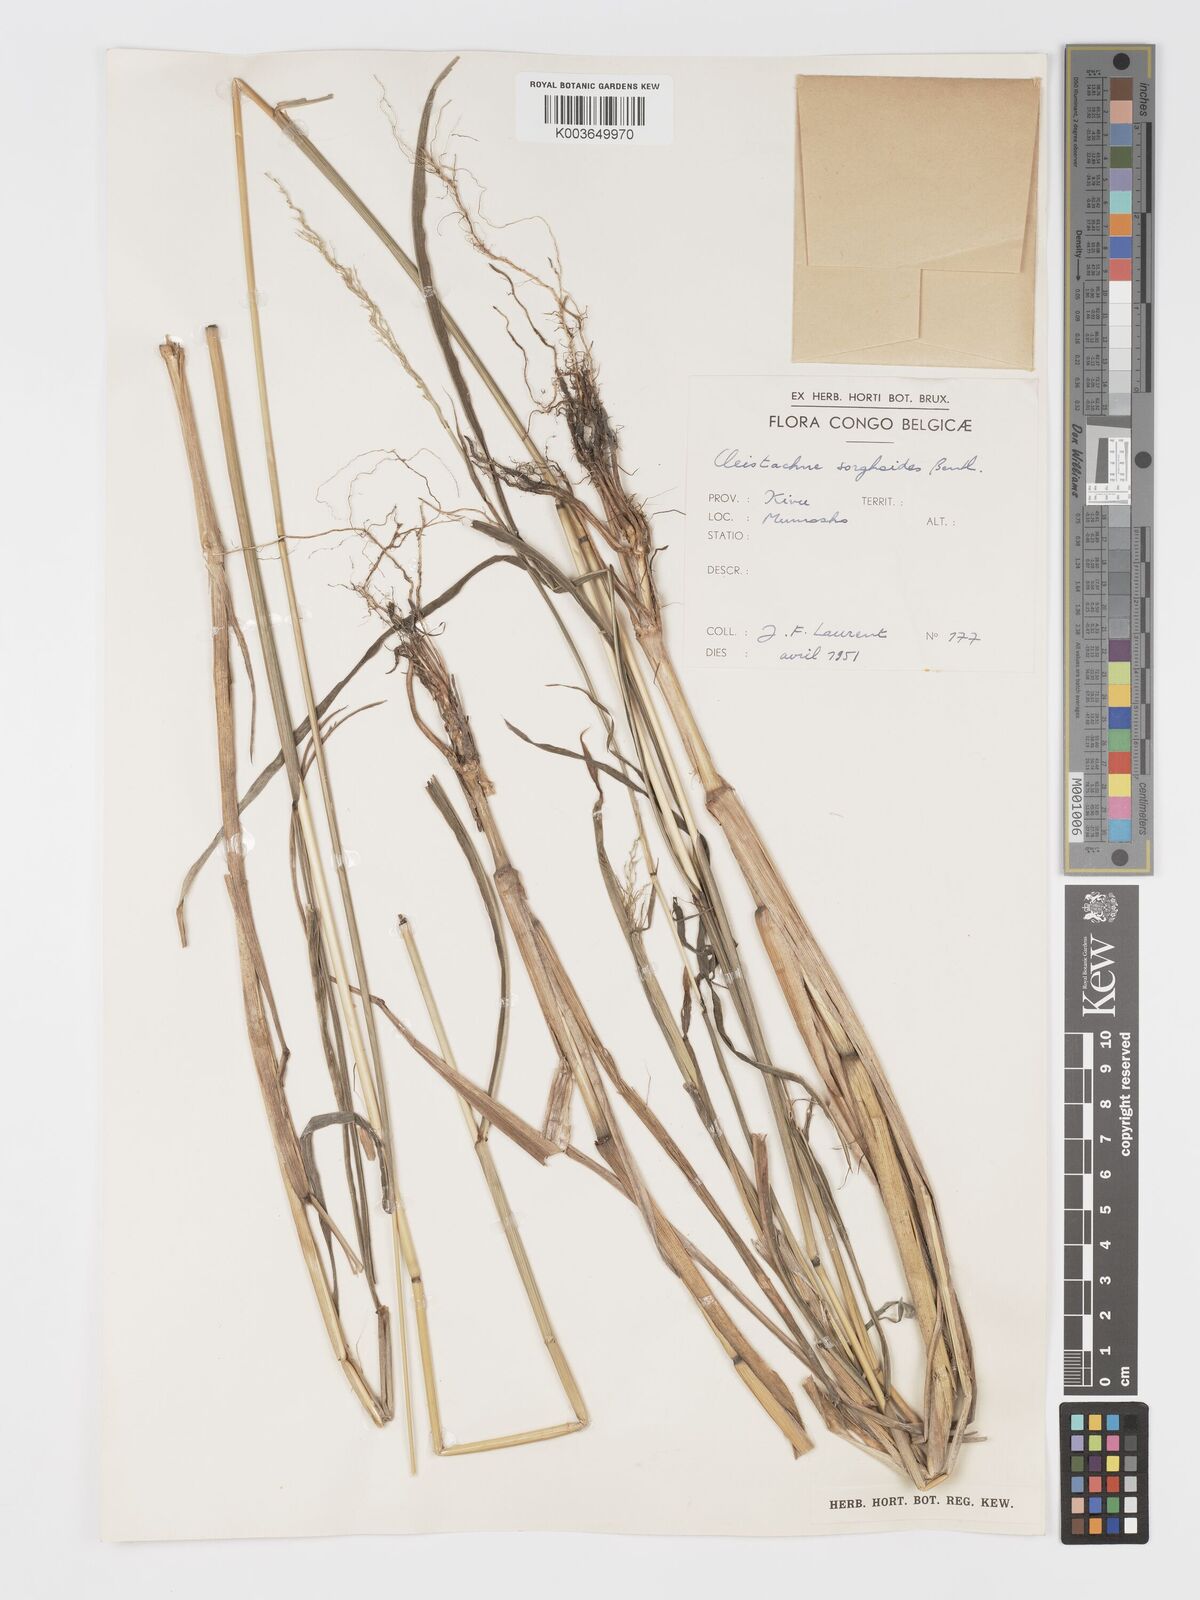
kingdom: Plantae
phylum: Tracheophyta
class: Liliopsida
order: Poales
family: Poaceae
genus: Cleistachne
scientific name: Cleistachne sorghoides
